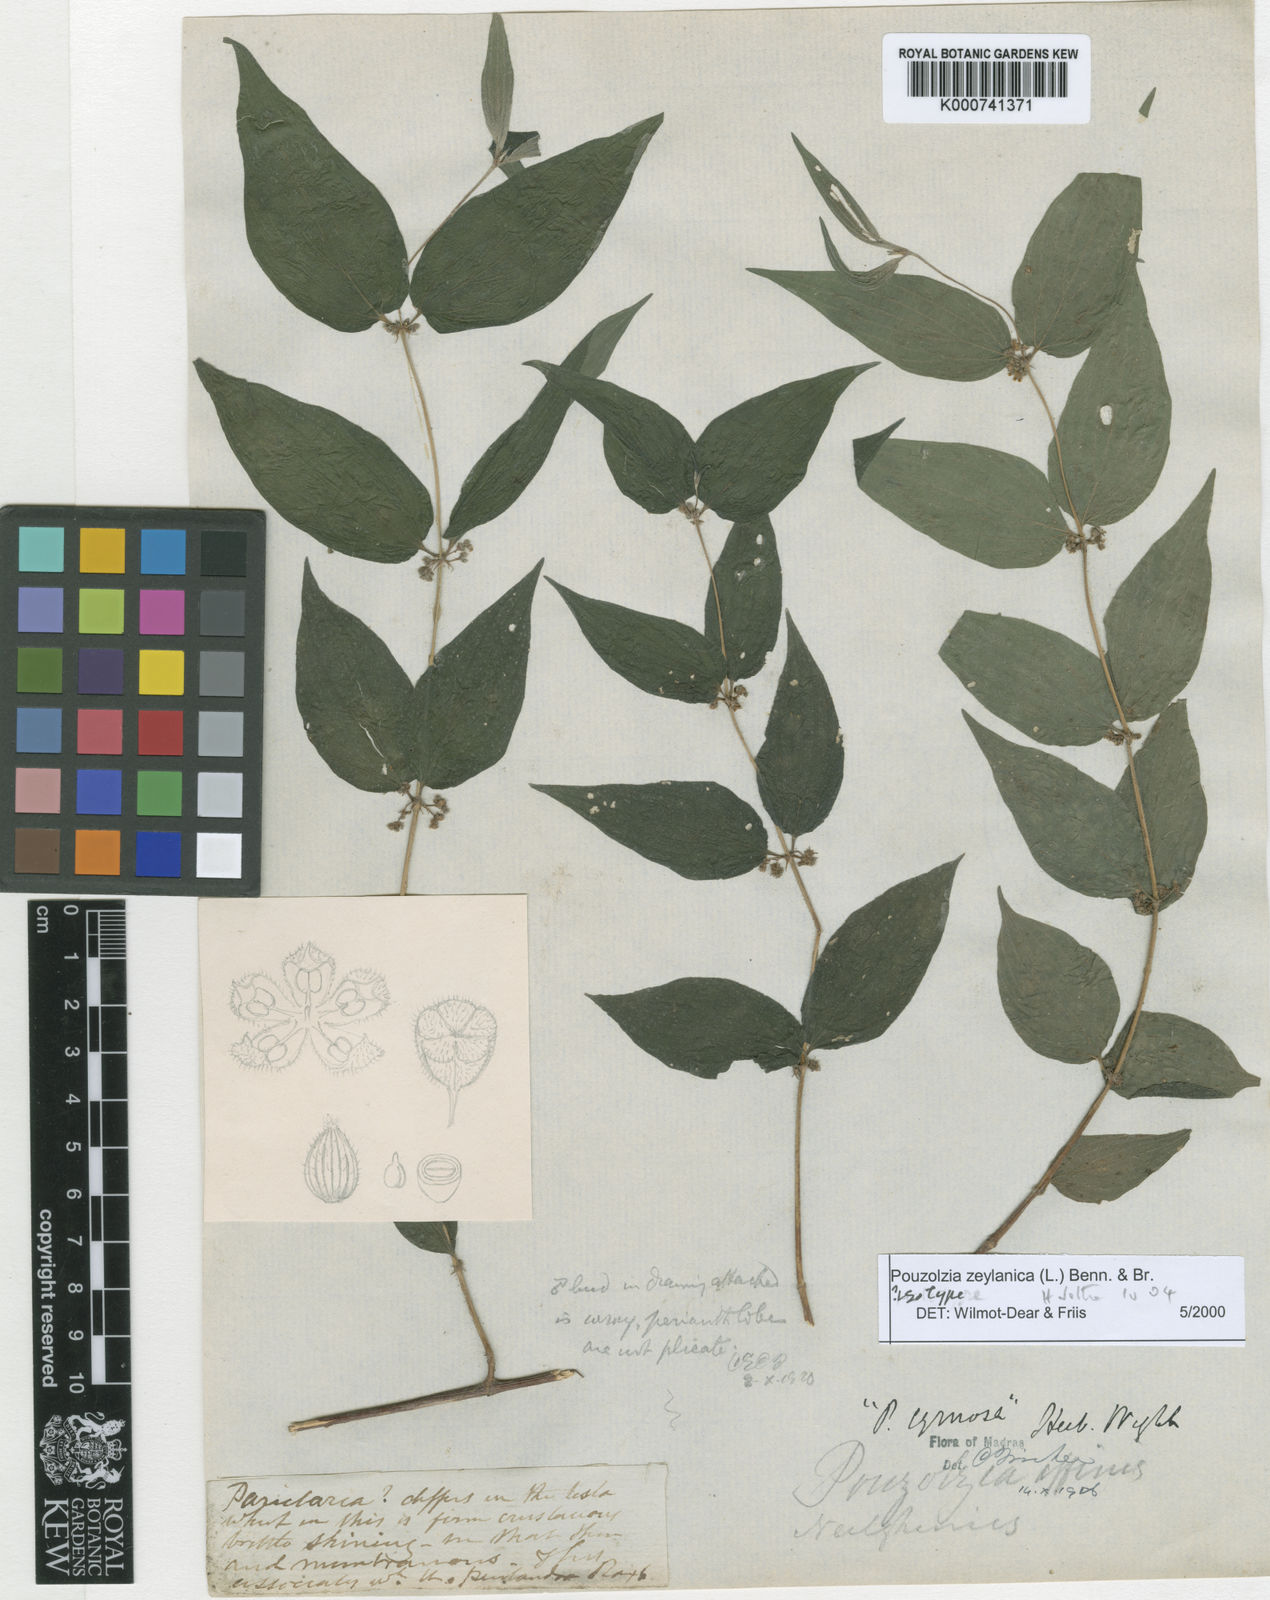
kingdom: Plantae
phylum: Tracheophyta
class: Magnoliopsida
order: Rosales
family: Urticaceae
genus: Pouzolzia
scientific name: Pouzolzia cymosa
